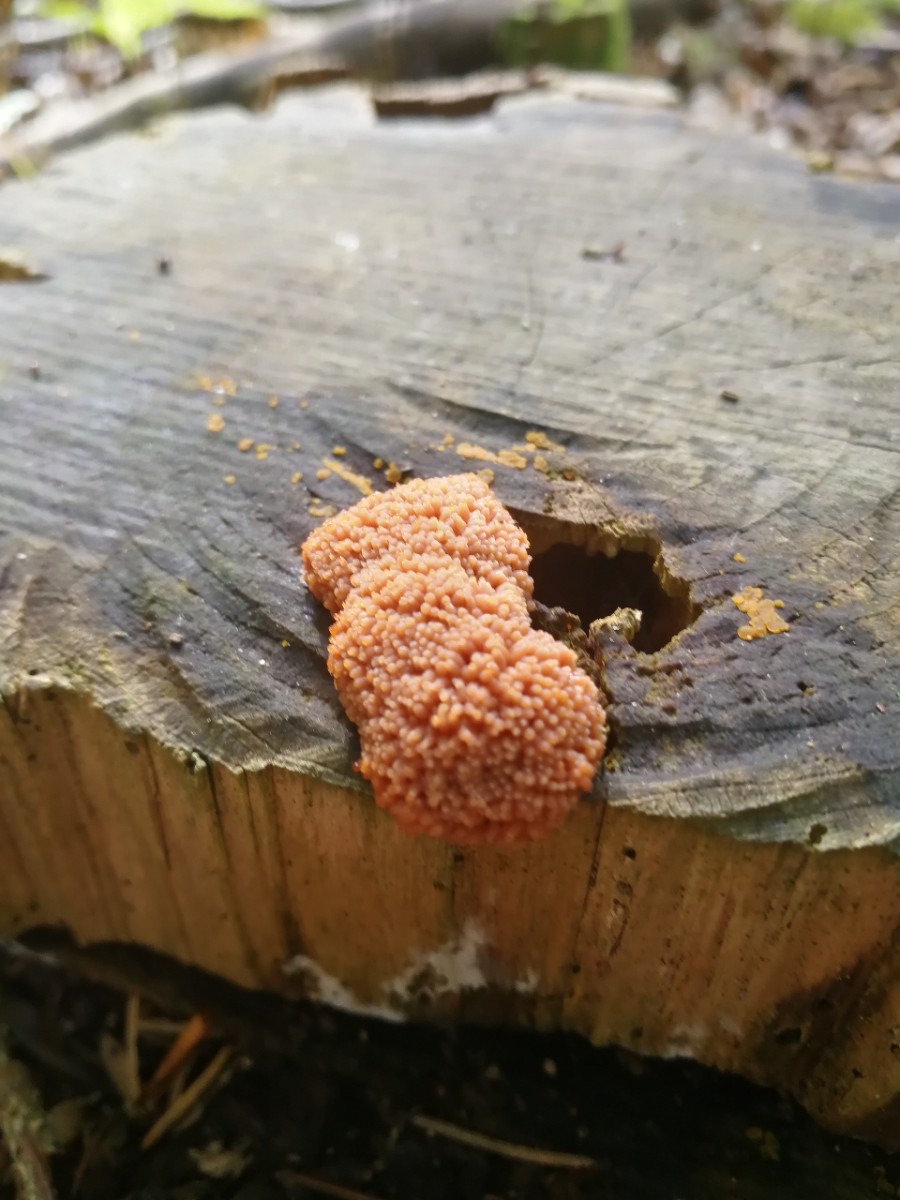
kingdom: Protozoa
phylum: Mycetozoa
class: Myxomycetes
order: Cribrariales
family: Tubiferaceae
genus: Tubifera
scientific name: Tubifera ferruginosa
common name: kanel-støvrør
